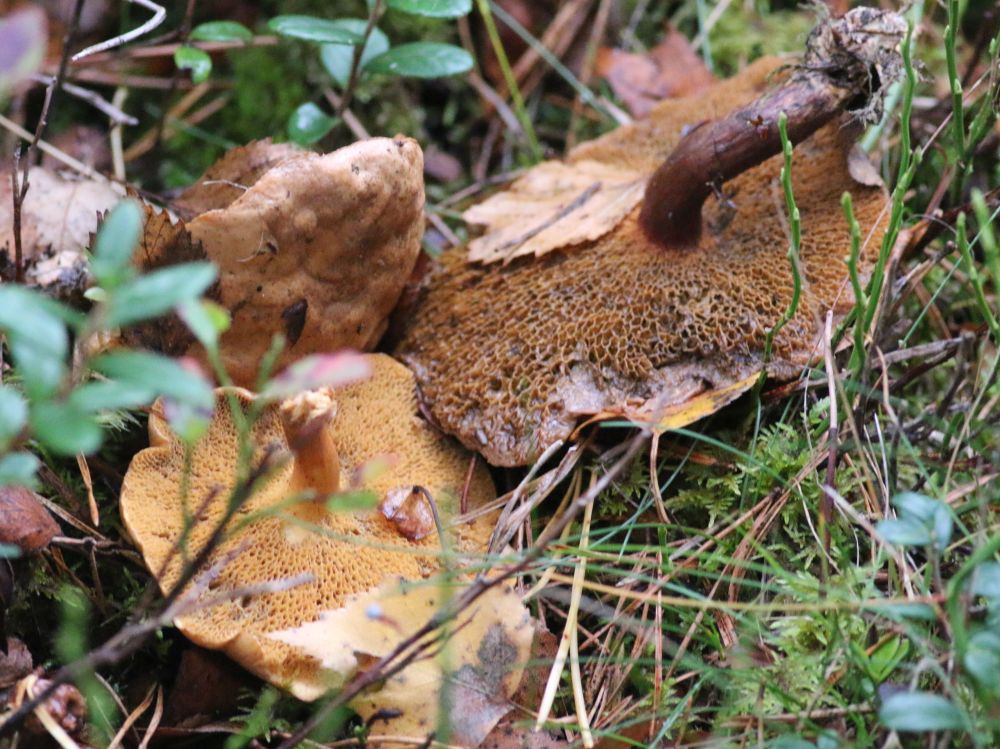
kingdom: Fungi
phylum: Basidiomycota
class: Agaricomycetes
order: Boletales
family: Suillaceae
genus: Suillus
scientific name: Suillus bovinus
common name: grovporet slimrørhat
